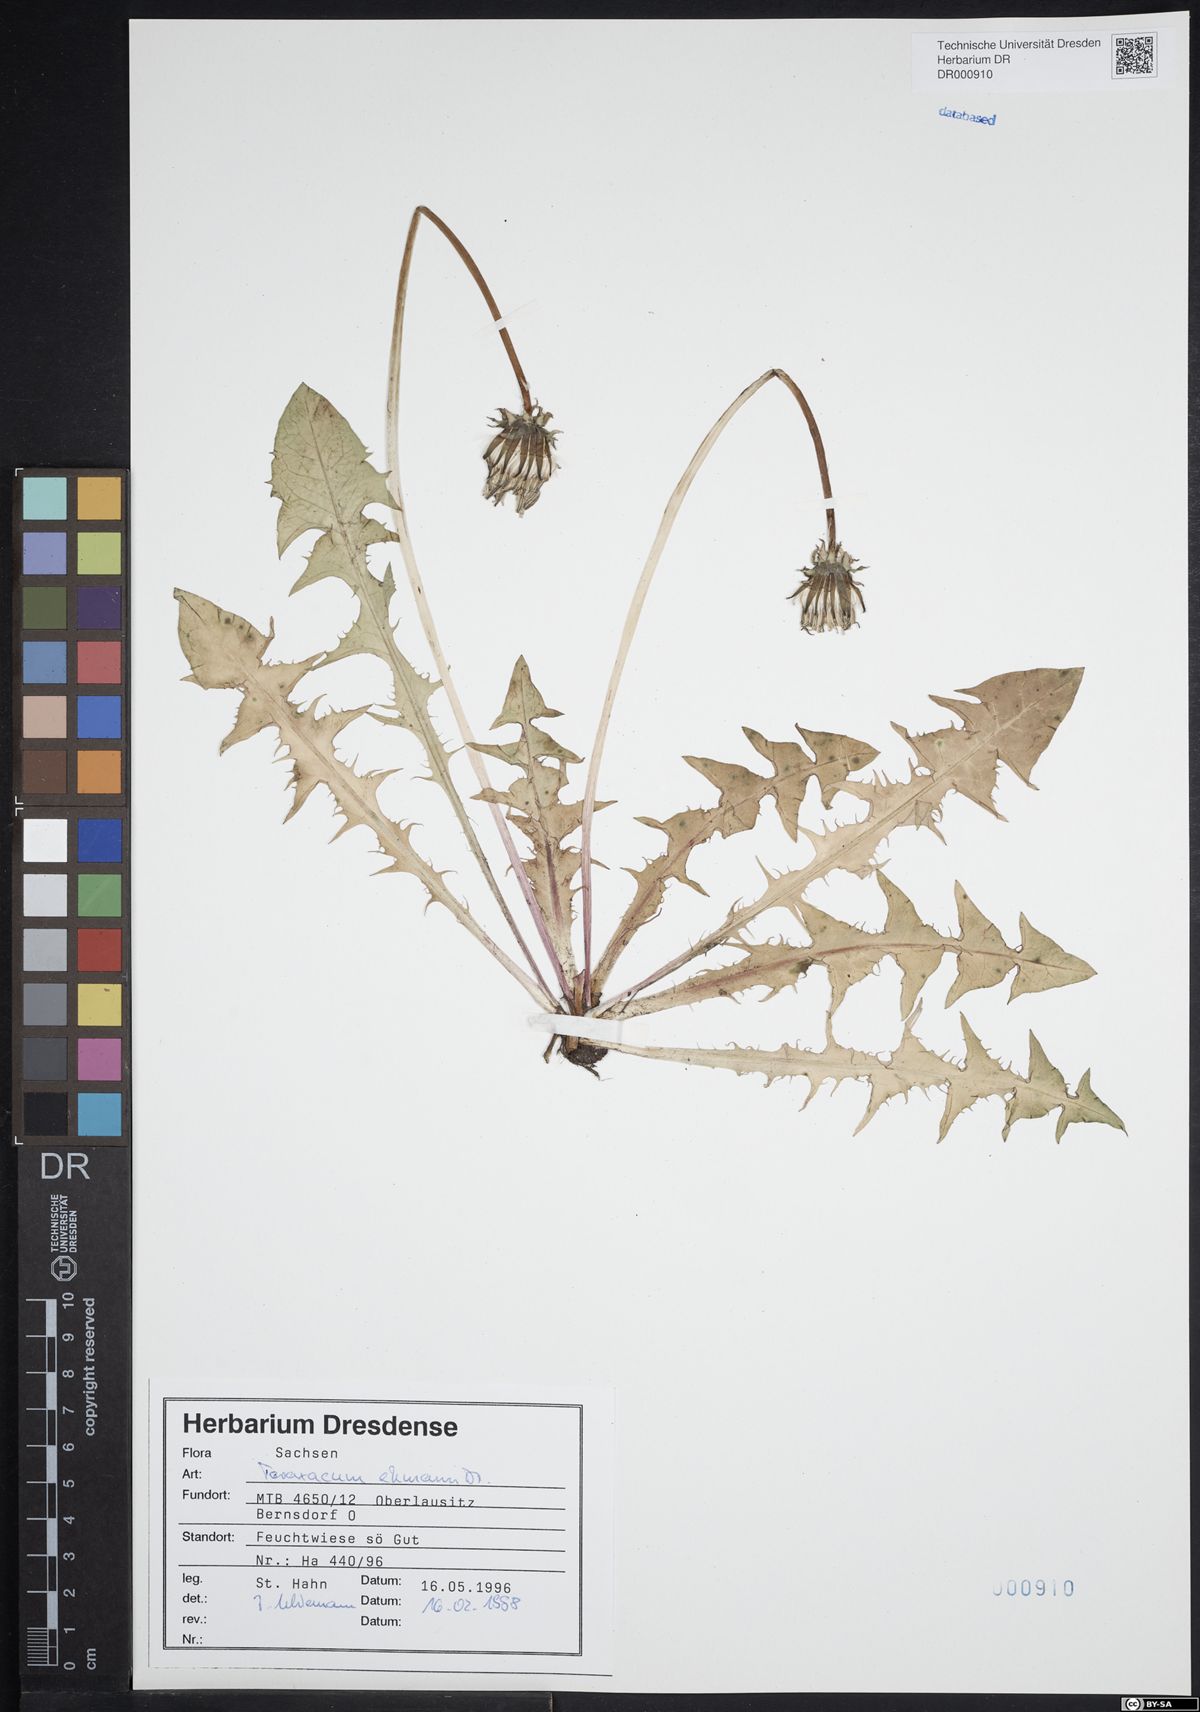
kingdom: Plantae
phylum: Tracheophyta
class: Magnoliopsida
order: Asterales
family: Asteraceae
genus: Taraxacum
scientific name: Taraxacum ekmanii
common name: Ekman's dandelion
